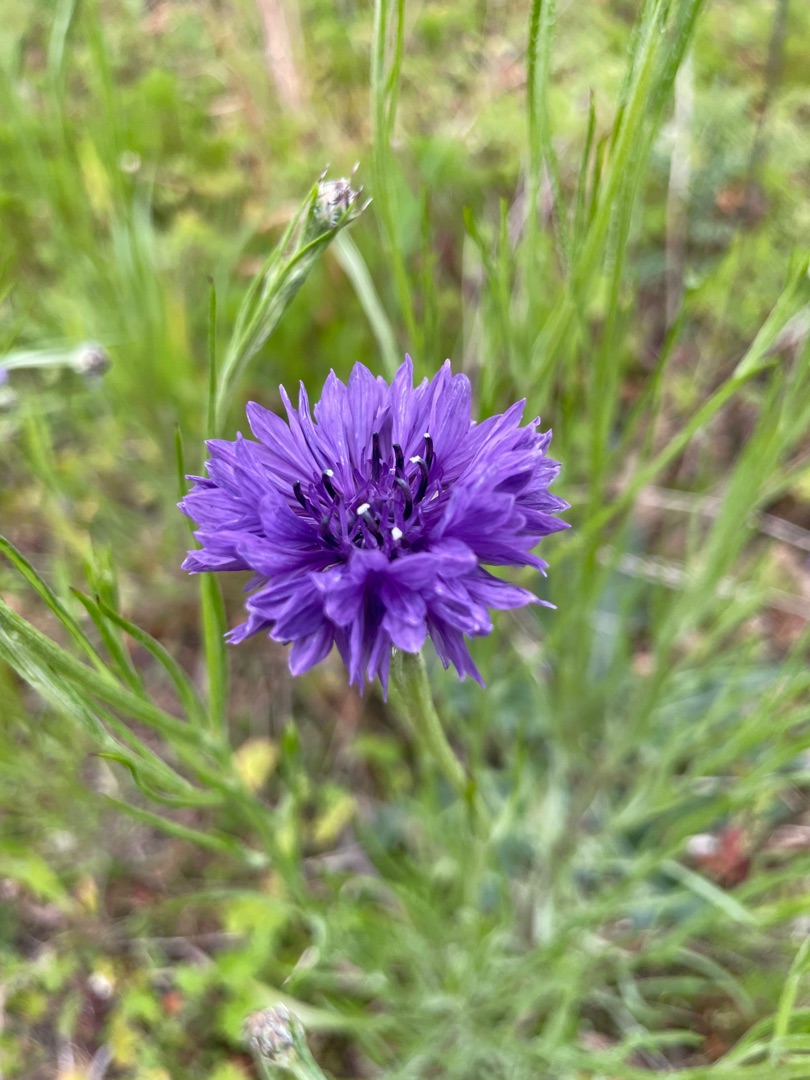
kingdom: Plantae
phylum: Tracheophyta
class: Magnoliopsida
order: Asterales
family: Asteraceae
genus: Centaurea
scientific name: Centaurea cyanus
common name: Kornblomst
